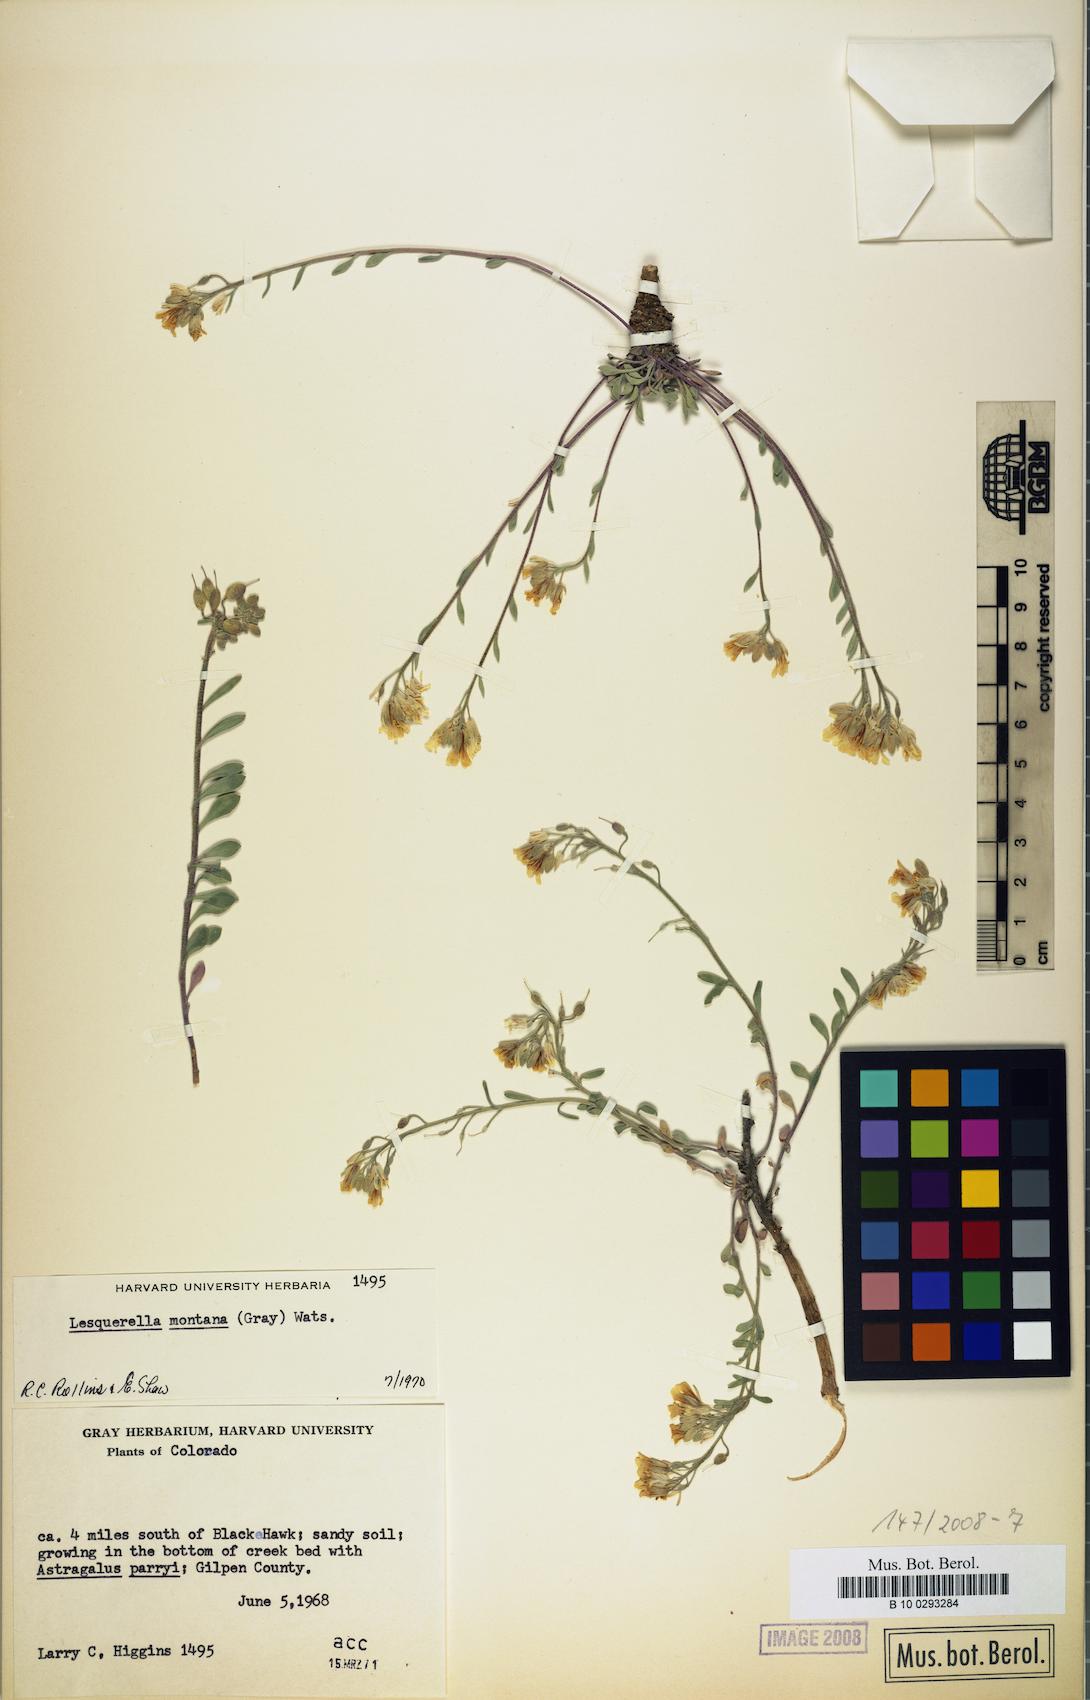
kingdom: Plantae
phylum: Tracheophyta
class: Magnoliopsida
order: Brassicales
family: Brassicaceae
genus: Physaria
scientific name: Physaria montana
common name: Mountain bladderpod
